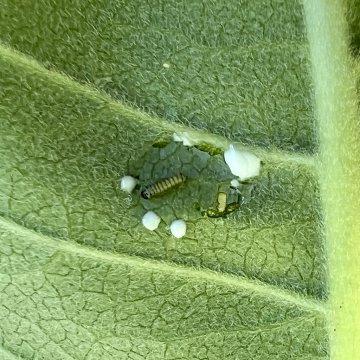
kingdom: Animalia
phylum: Arthropoda
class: Insecta
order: Lepidoptera
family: Nymphalidae
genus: Danaus
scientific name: Danaus plexippus
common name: Monarch
